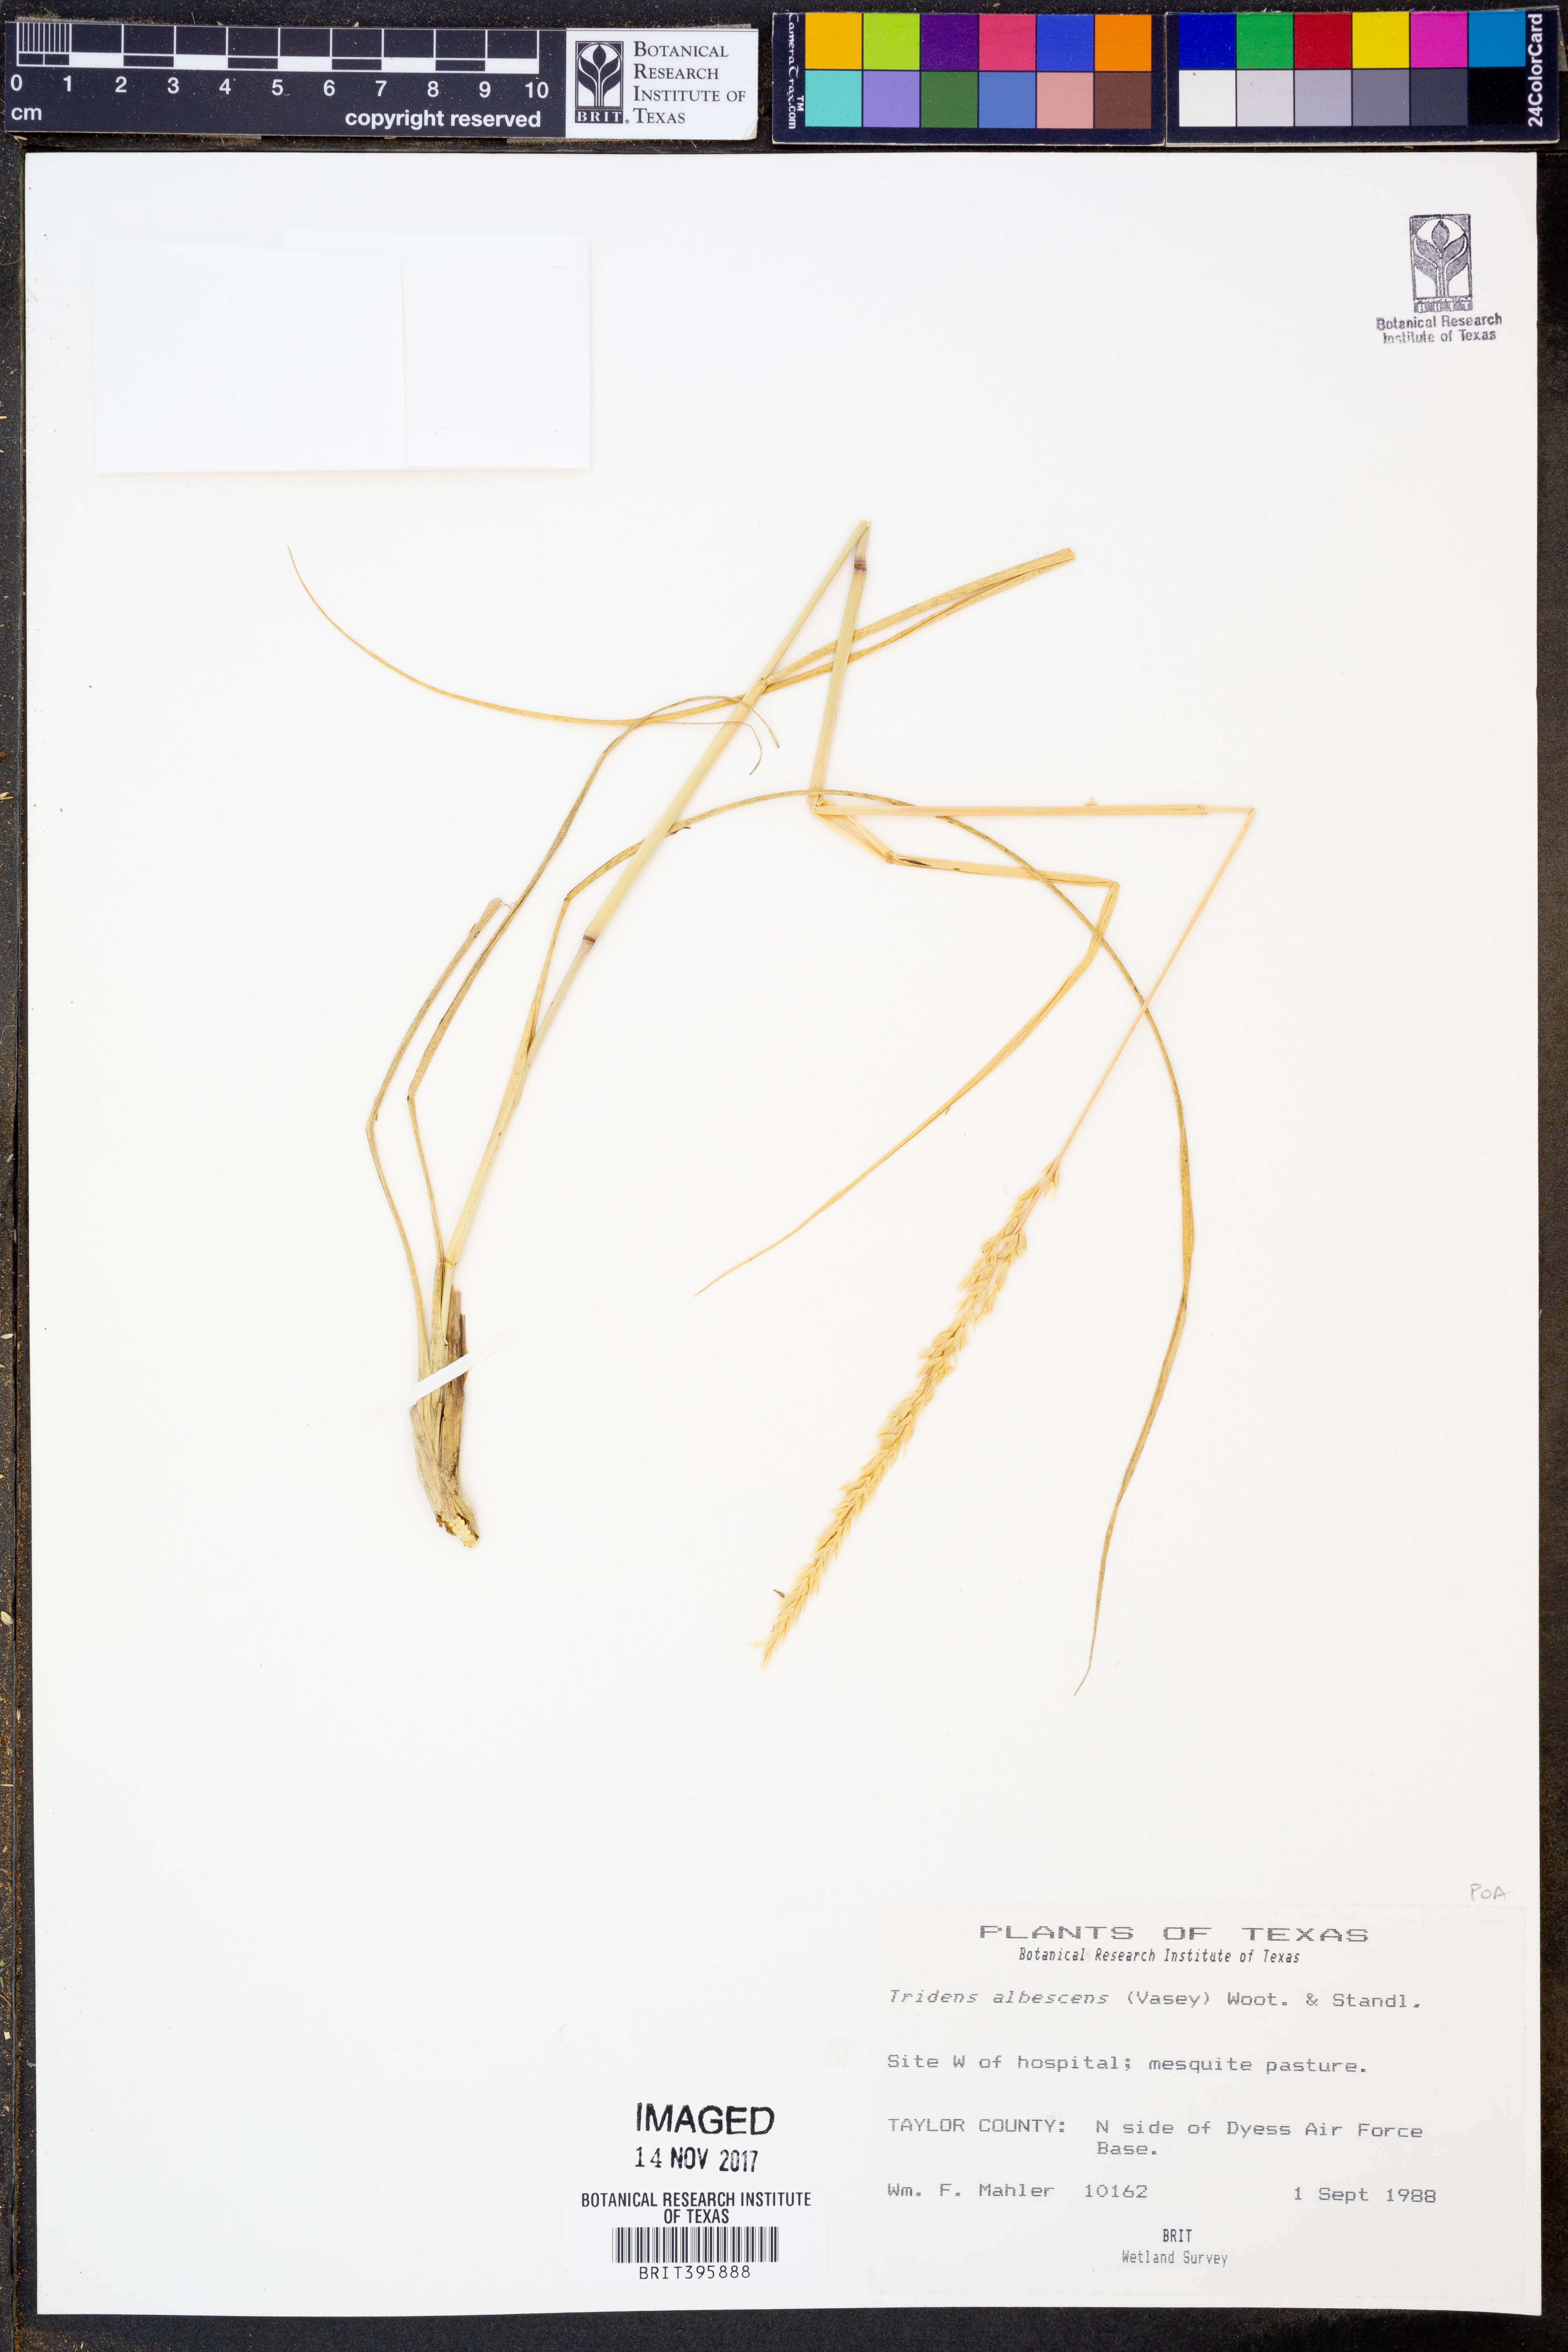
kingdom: Plantae
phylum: Tracheophyta
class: Liliopsida
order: Poales
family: Poaceae
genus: Tridens
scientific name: Tridens albescens
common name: White tridens
